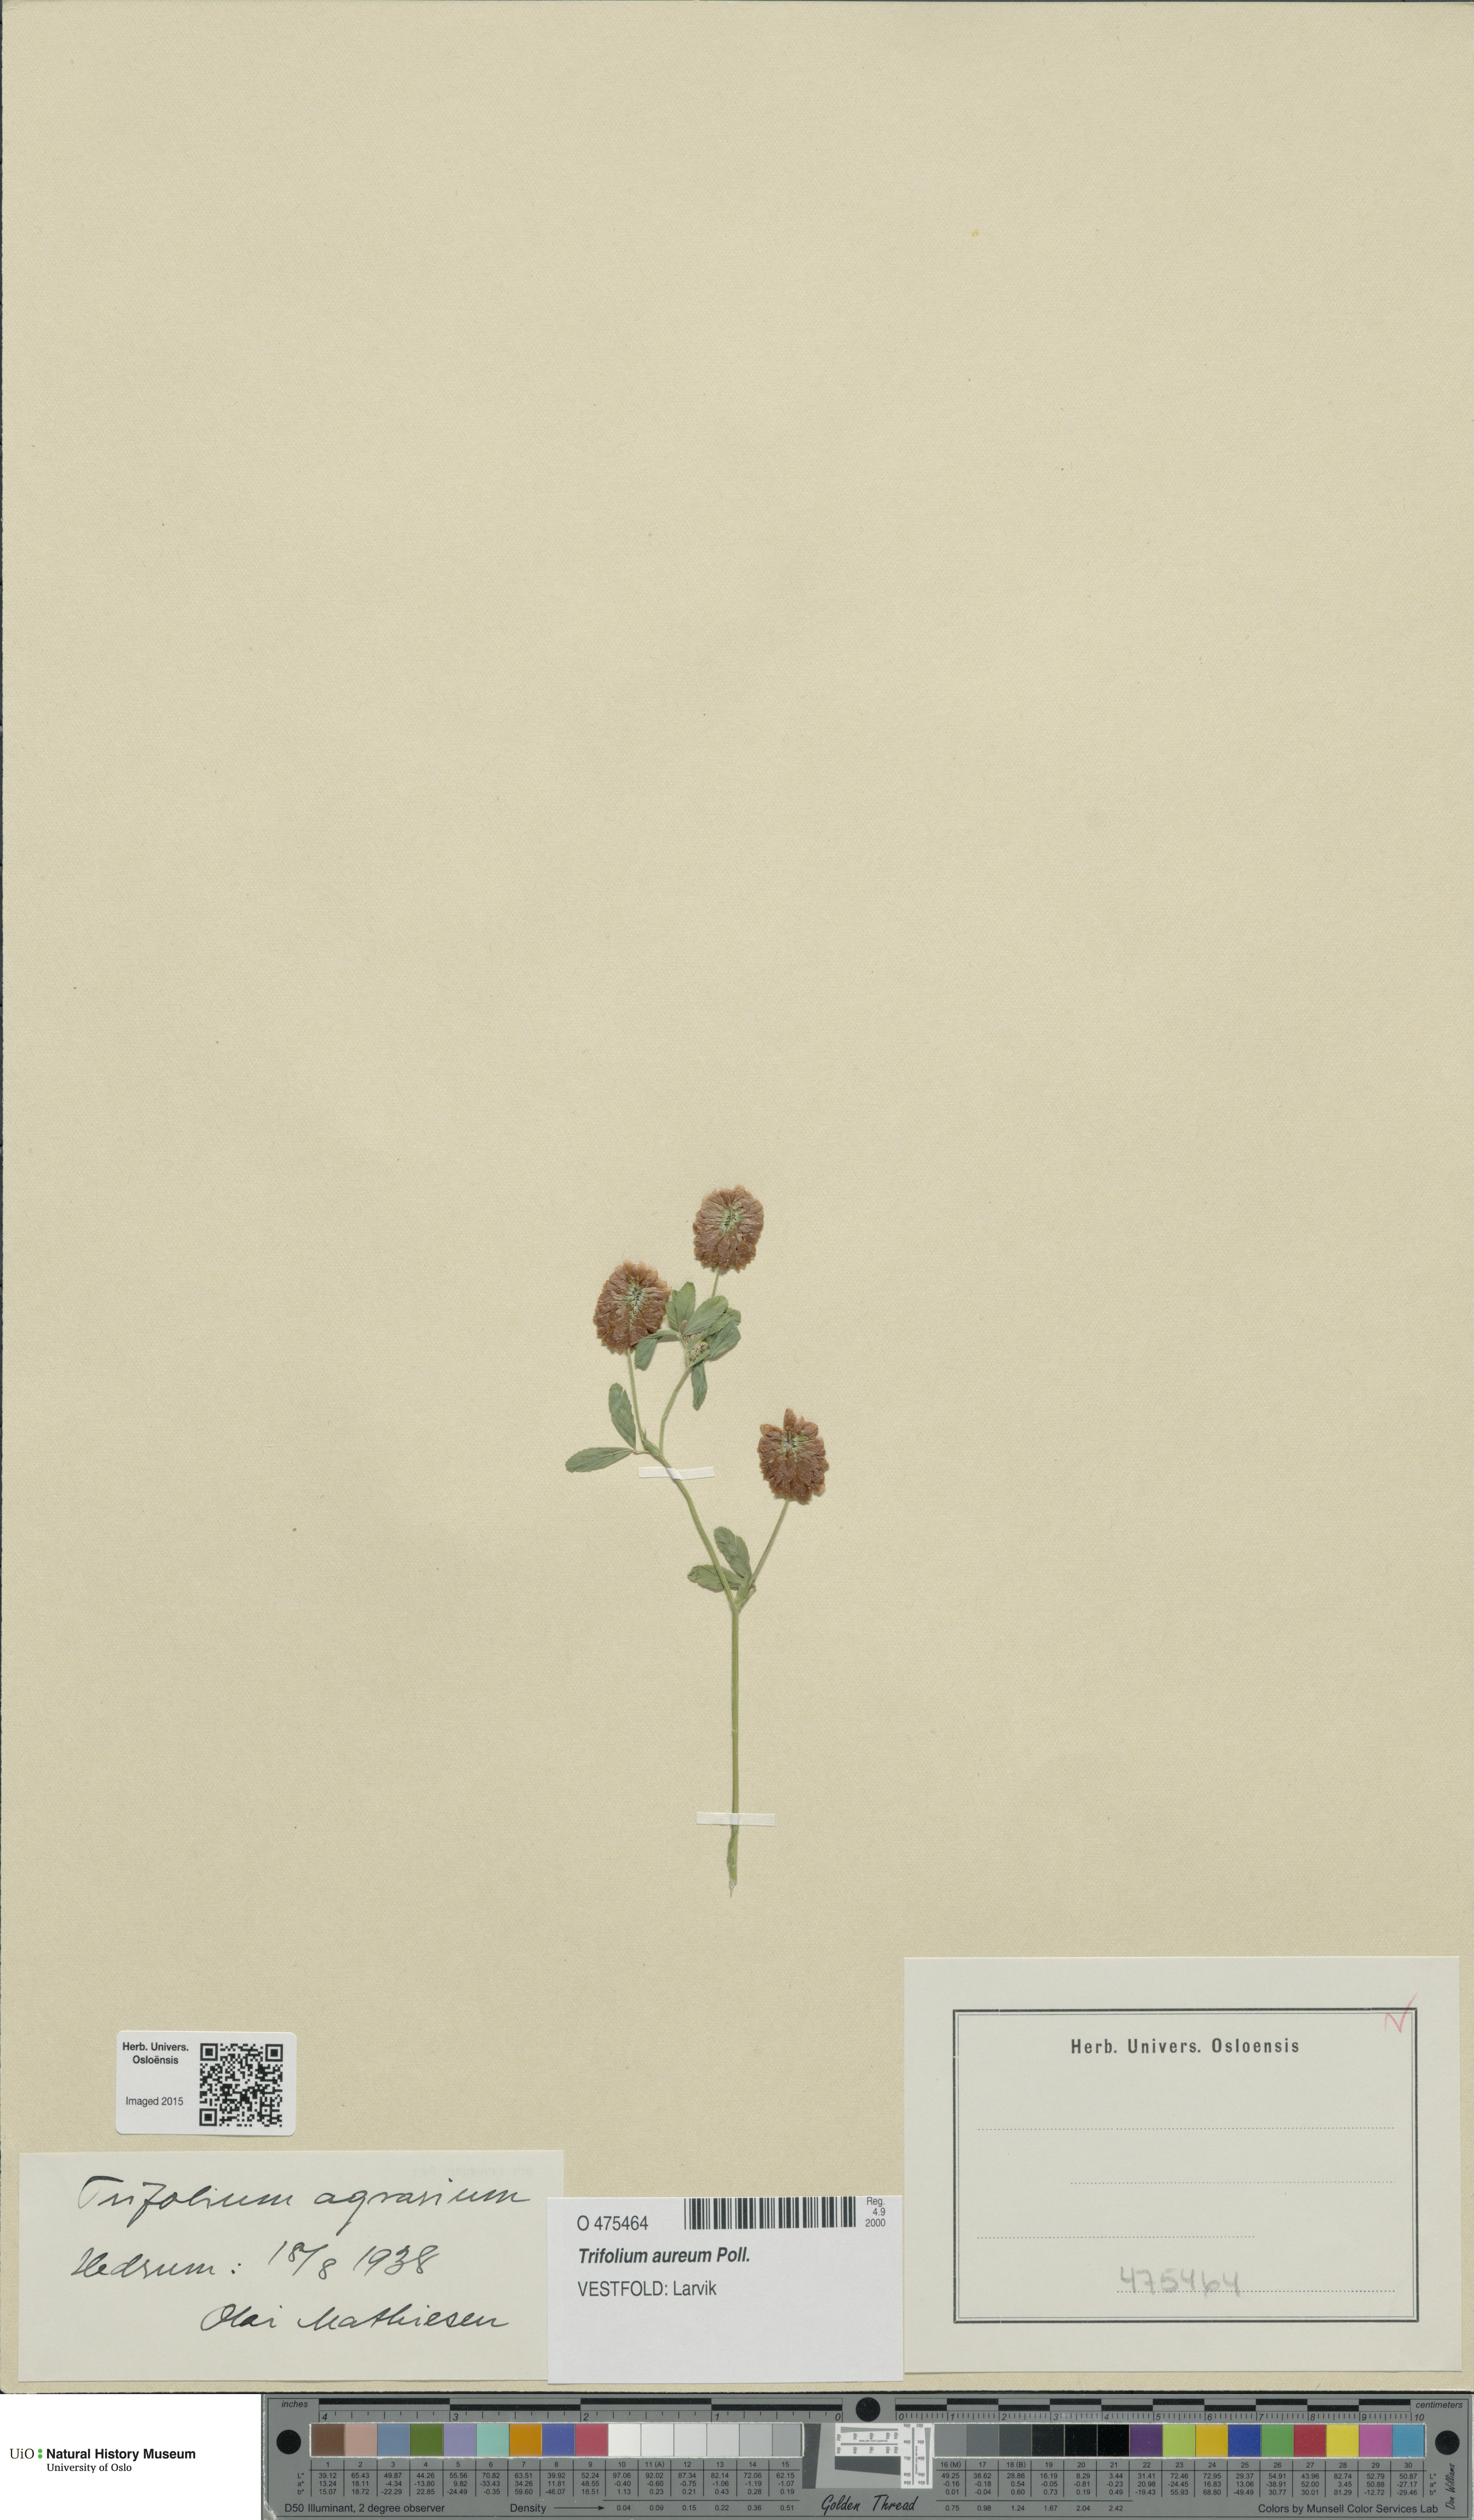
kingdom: Plantae
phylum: Tracheophyta
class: Magnoliopsida
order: Fabales
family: Fabaceae
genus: Trifolium
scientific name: Trifolium aureum
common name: Golden clover
